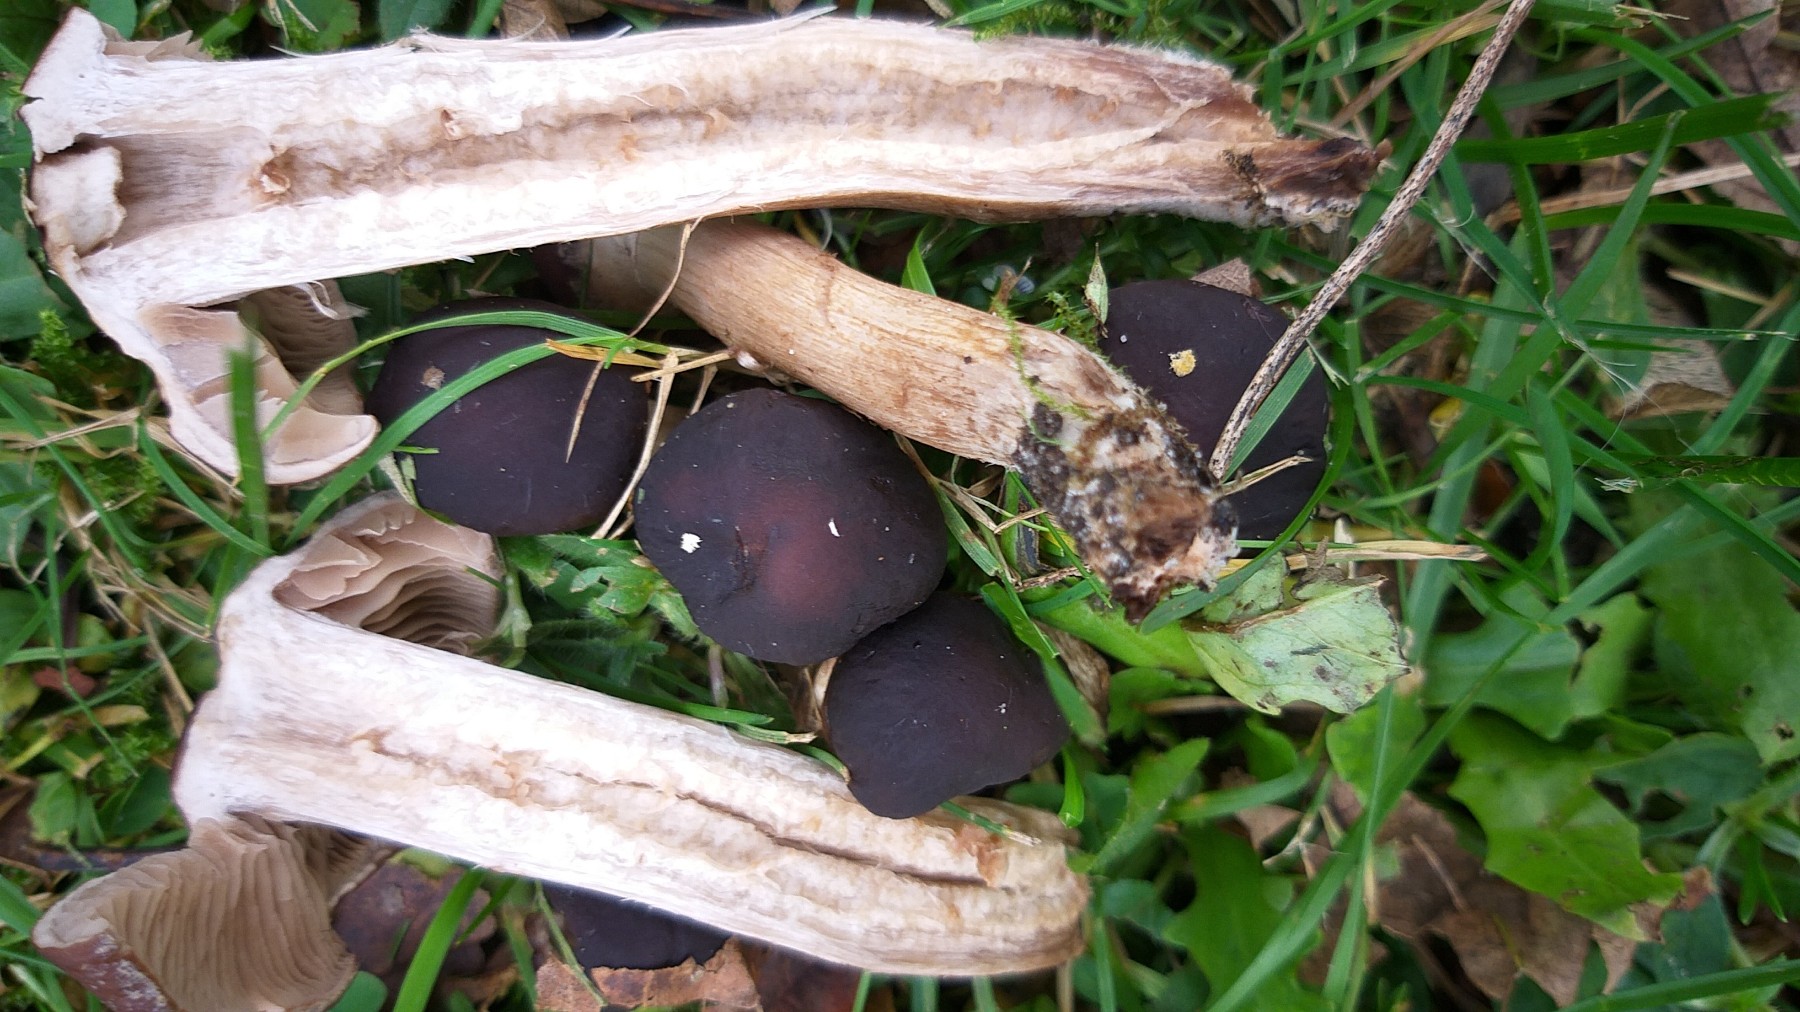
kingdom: Fungi
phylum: Basidiomycota
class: Agaricomycetes
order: Agaricales
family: Tubariaceae
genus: Cyclocybe
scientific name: Cyclocybe erebia
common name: mørk agerhat
